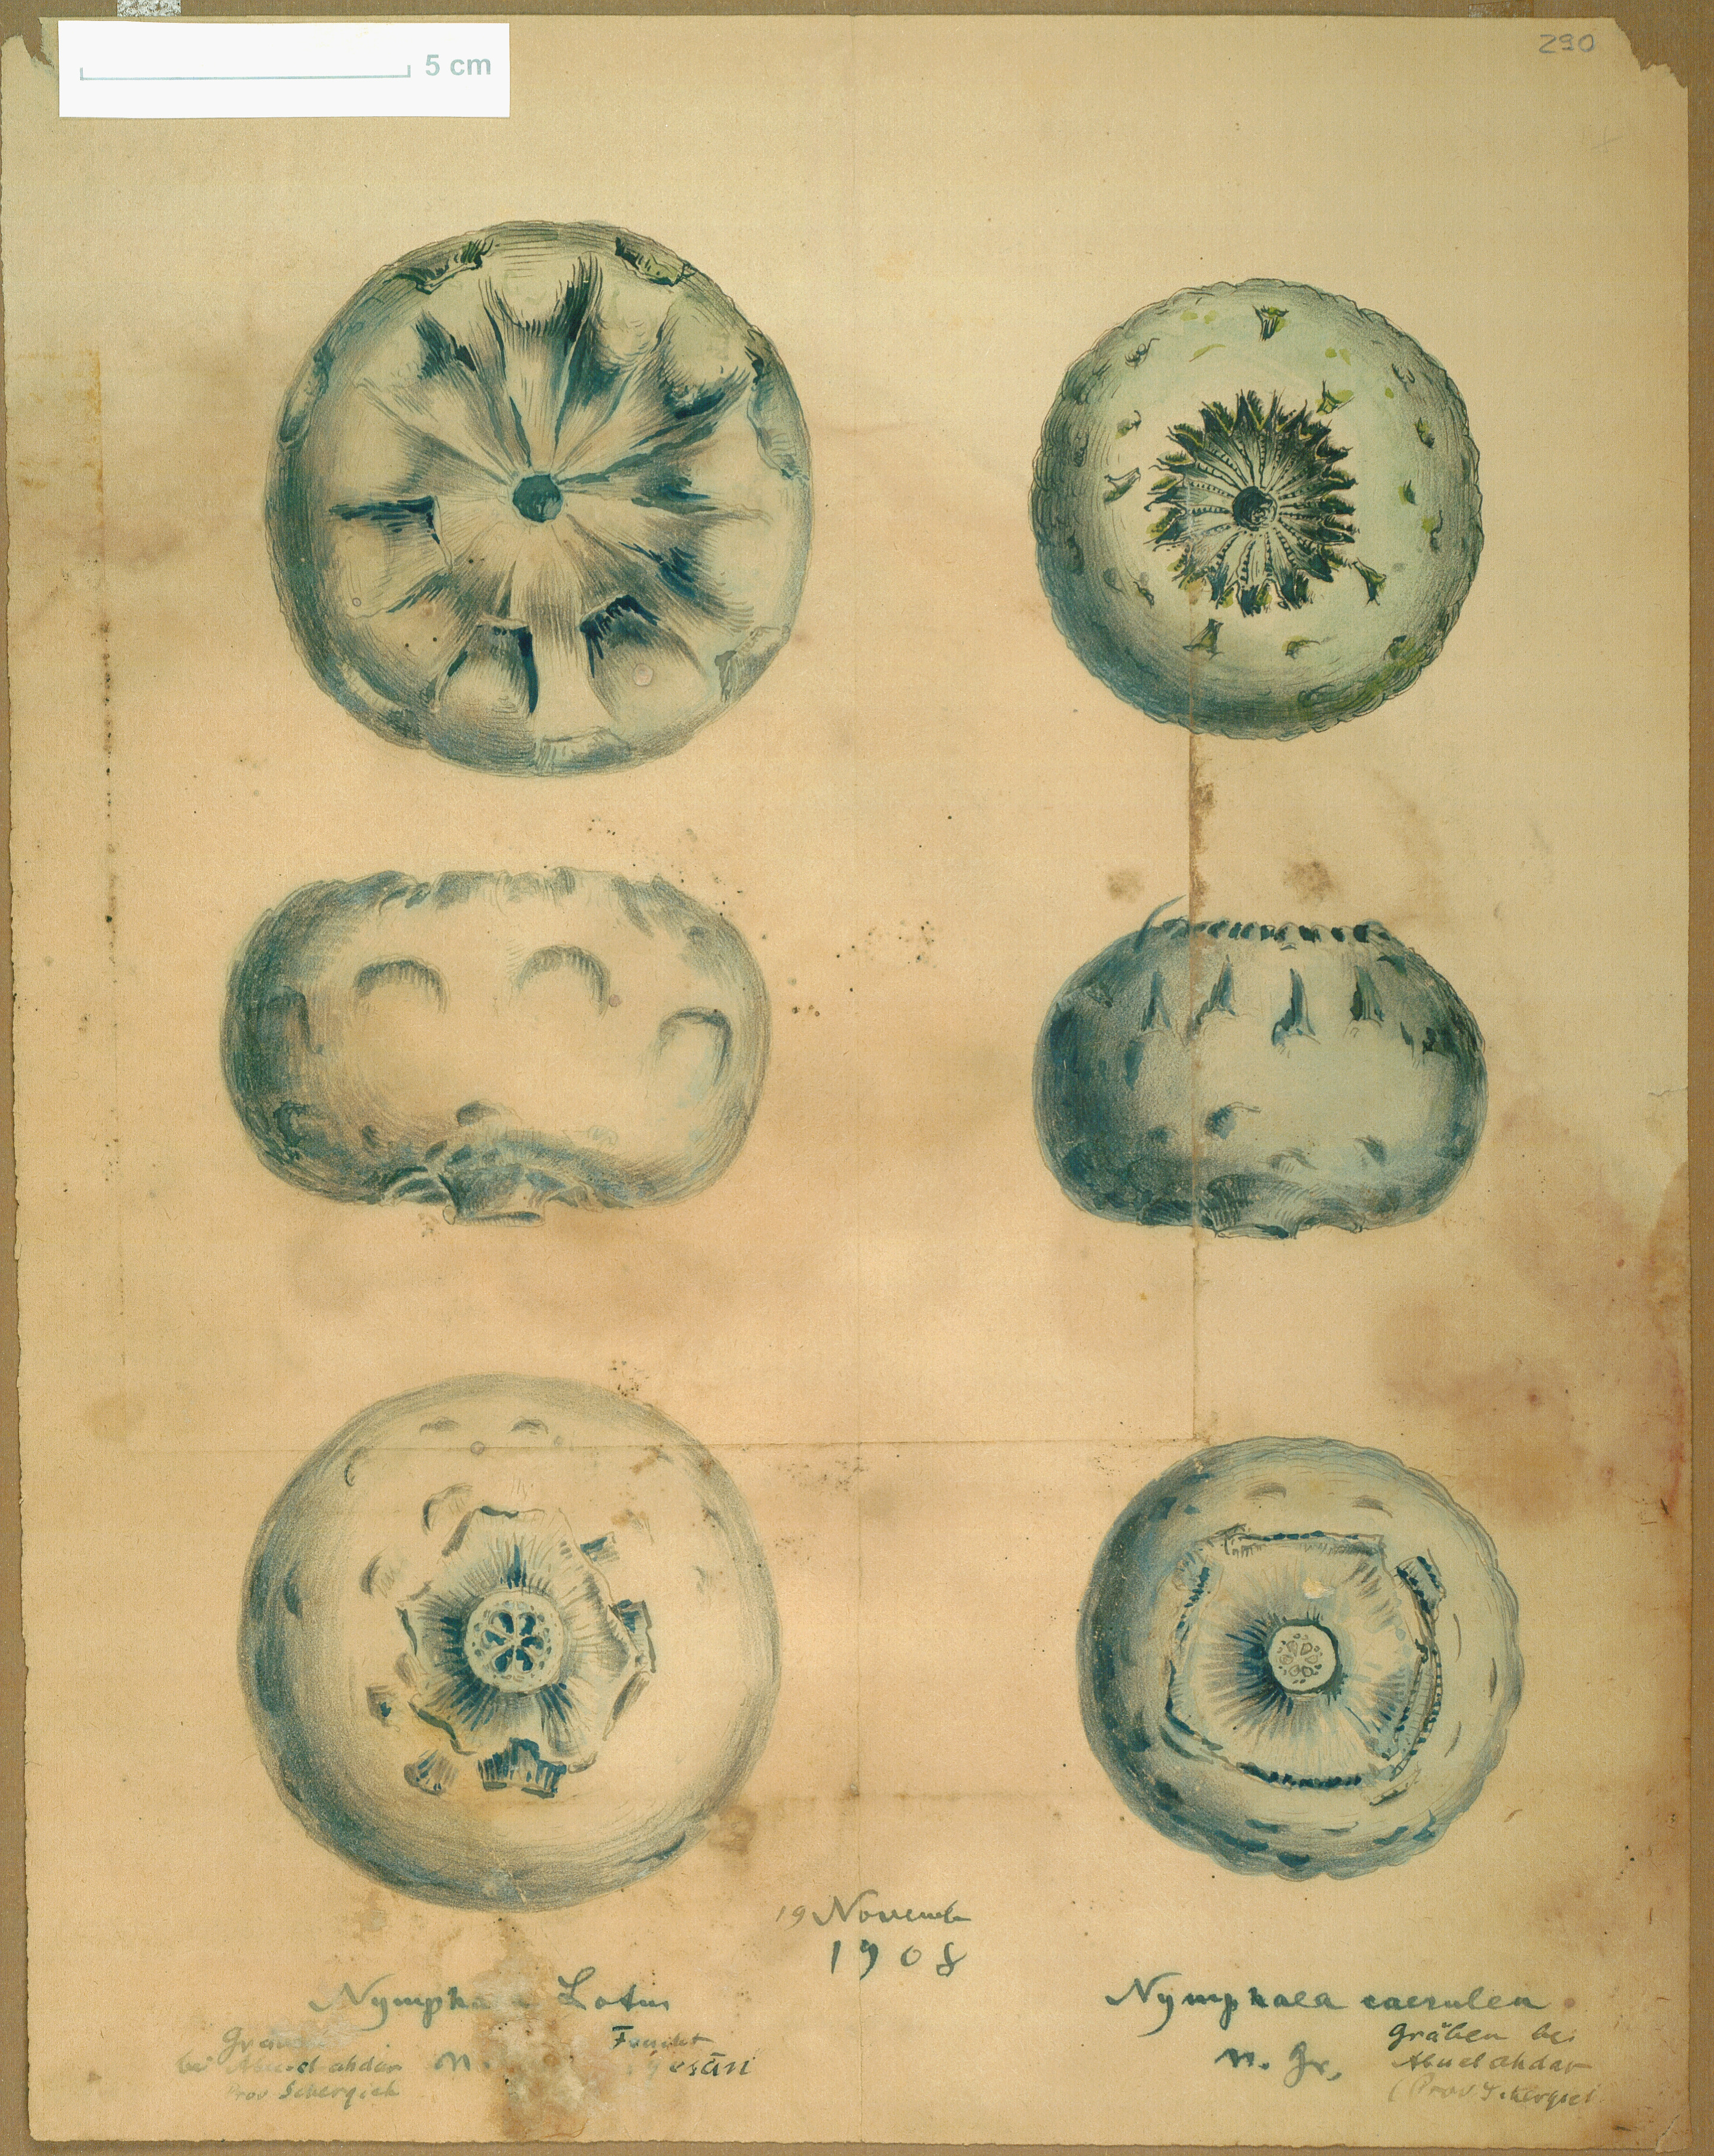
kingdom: Plantae
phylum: Tracheophyta
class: Magnoliopsida
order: Nymphaeales
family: Nymphaeaceae
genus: Nymphaea
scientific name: Nymphaea lotus
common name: White egyptian lotus
